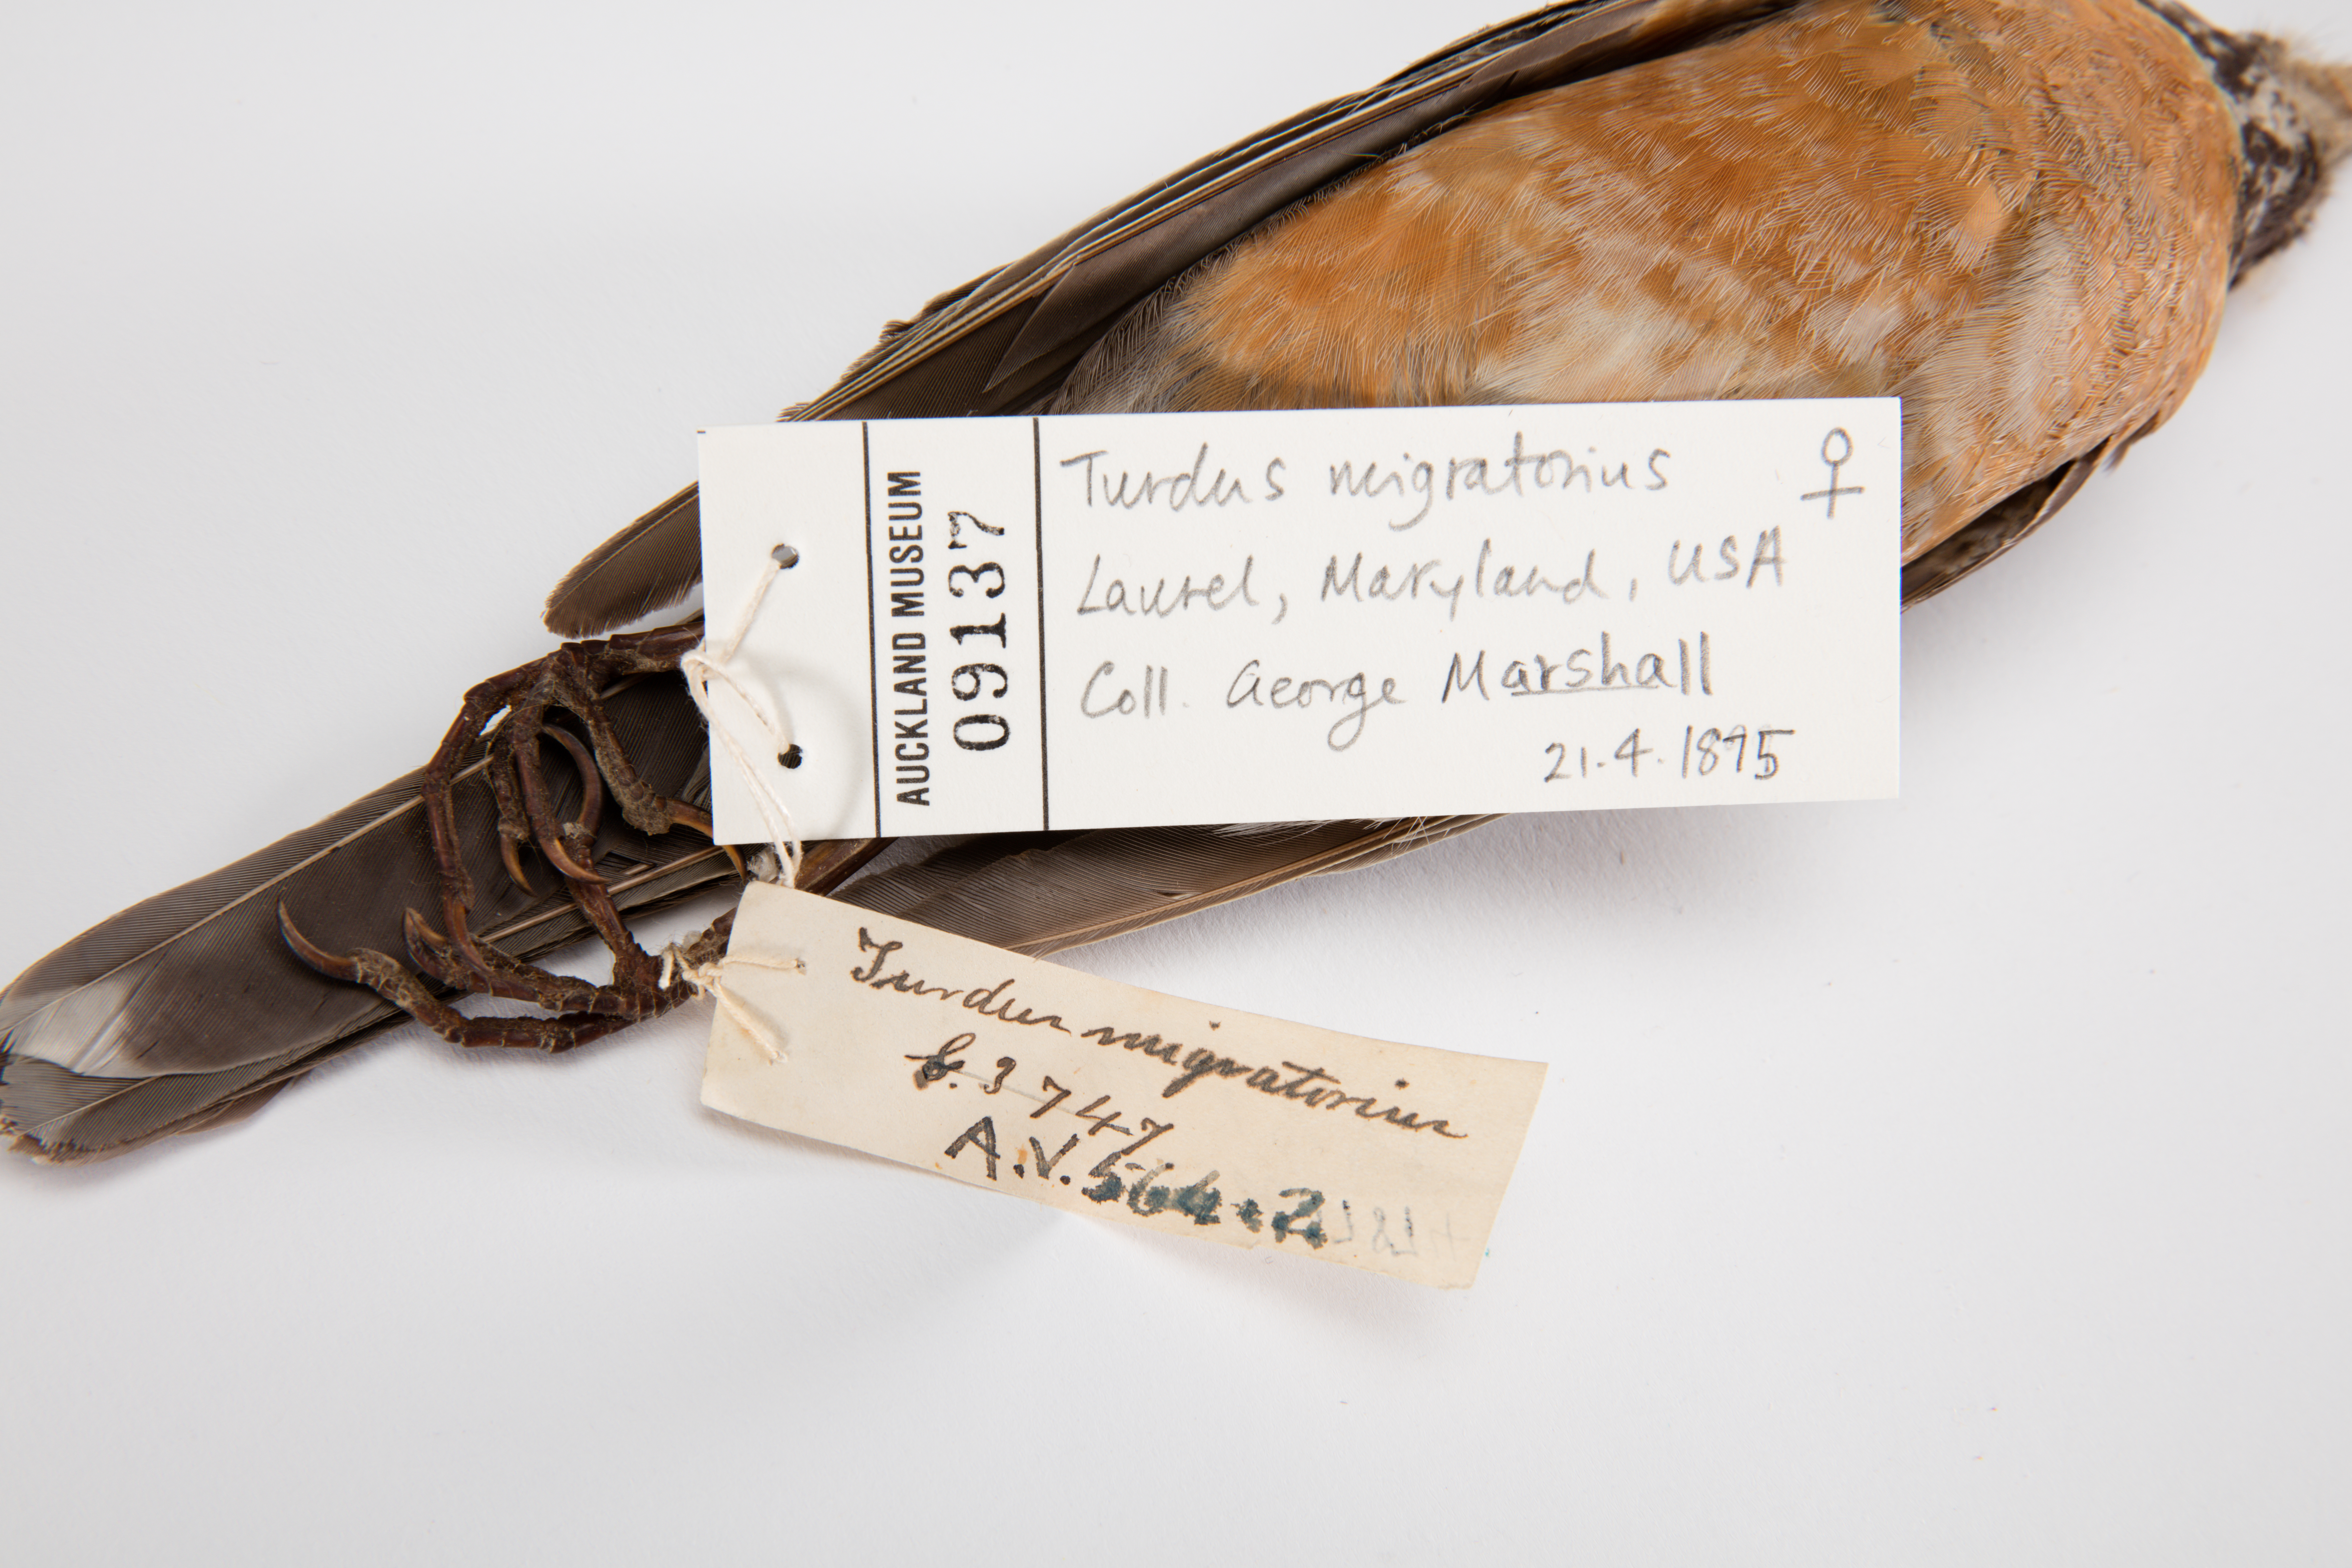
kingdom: Animalia
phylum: Chordata
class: Aves
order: Passeriformes
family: Turdidae
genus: Turdus
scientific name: Turdus migratorius
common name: American robin
